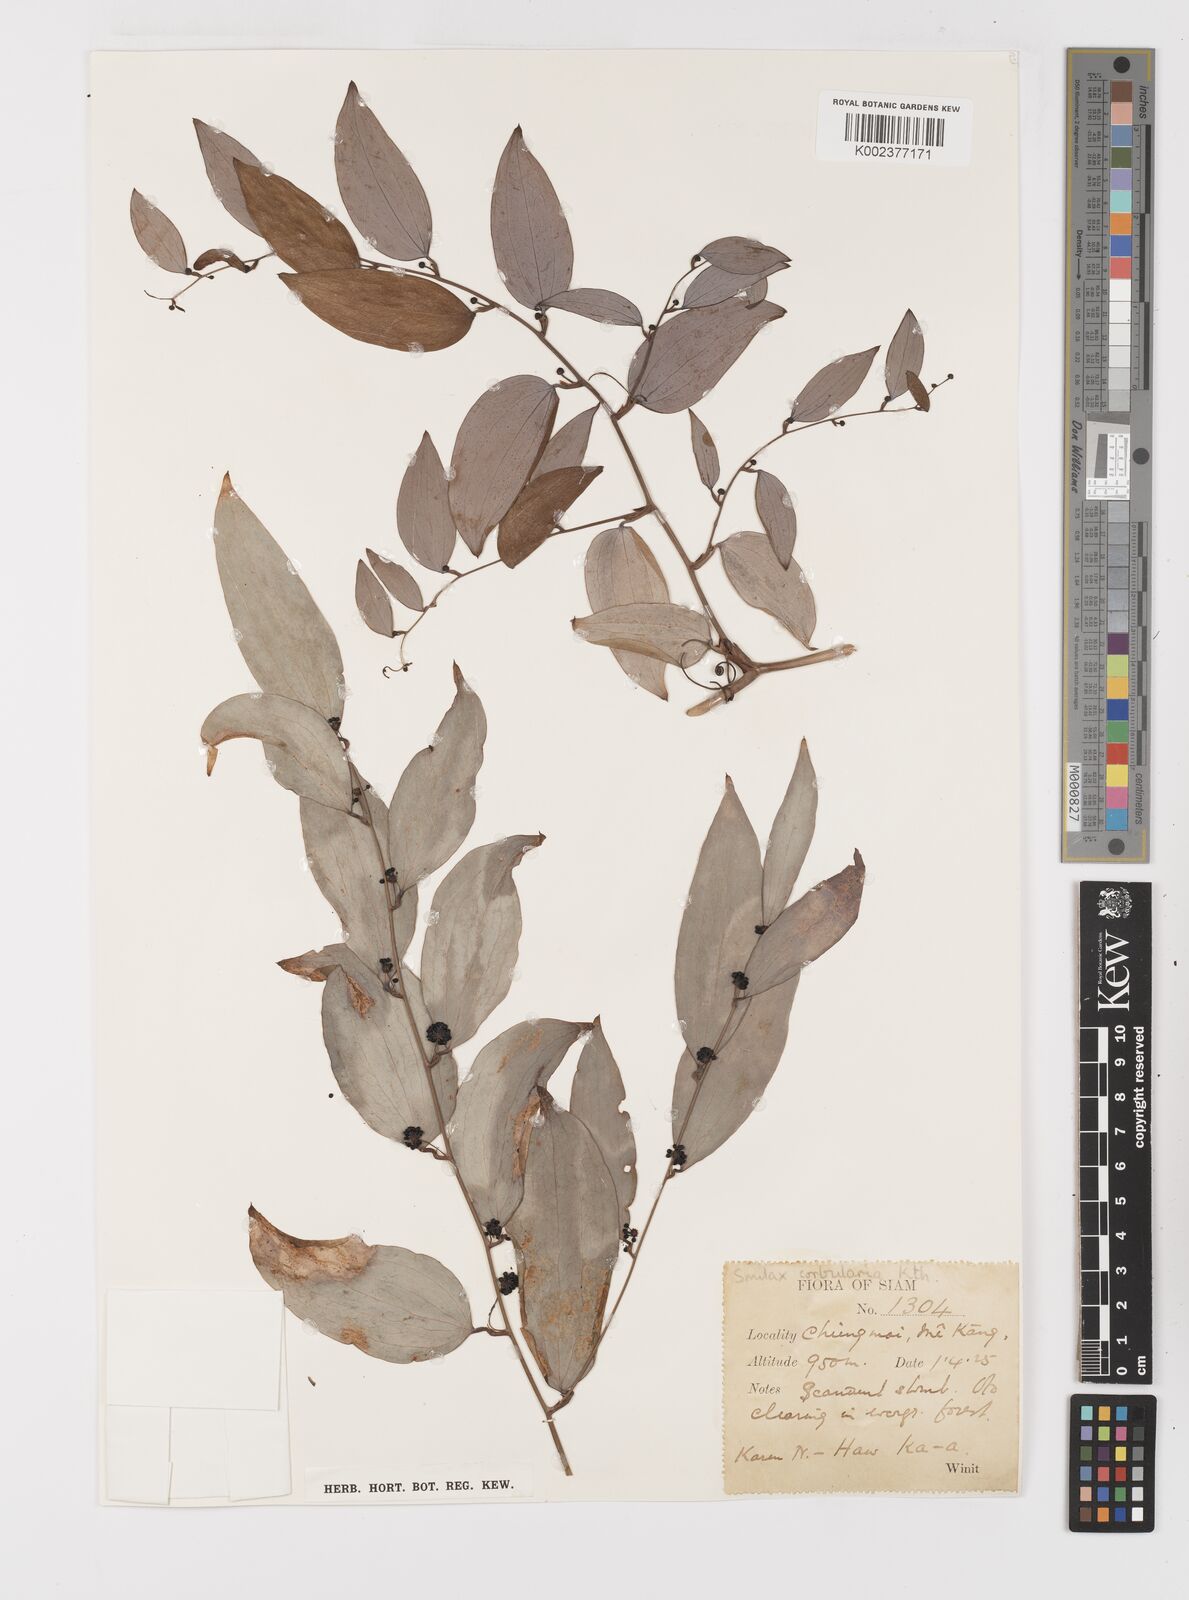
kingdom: Plantae
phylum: Tracheophyta
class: Liliopsida
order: Liliales
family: Smilacaceae
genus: Smilax
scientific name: Smilax corbularia
